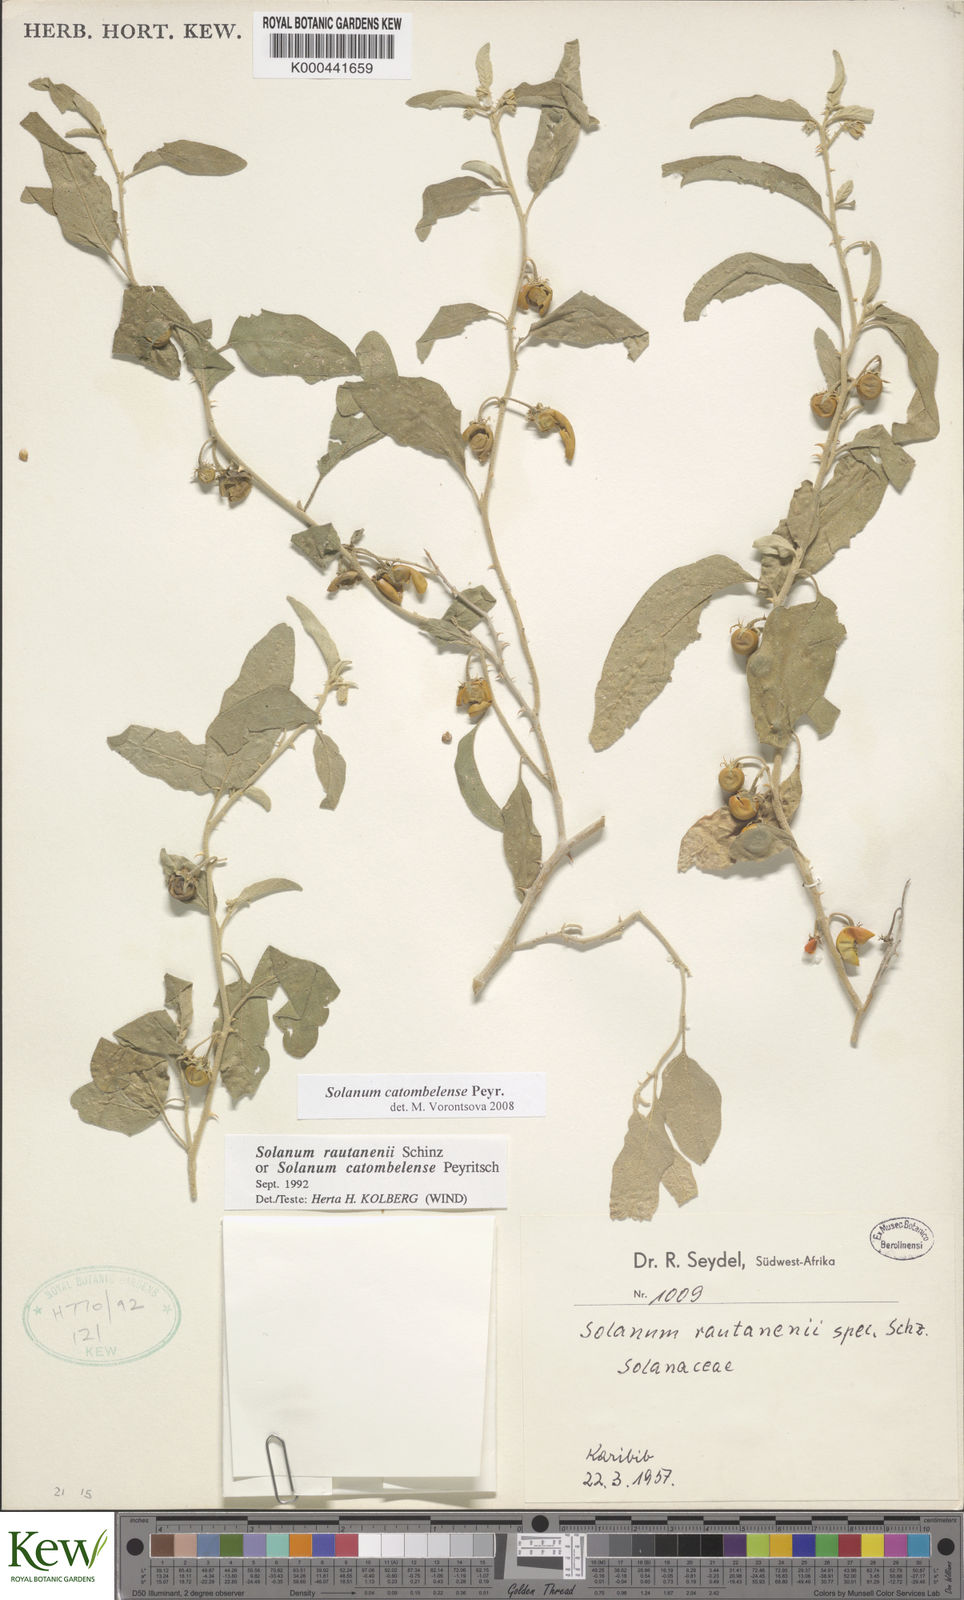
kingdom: Plantae
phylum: Tracheophyta
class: Magnoliopsida
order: Solanales
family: Solanaceae
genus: Solanum
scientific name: Solanum catombelense
